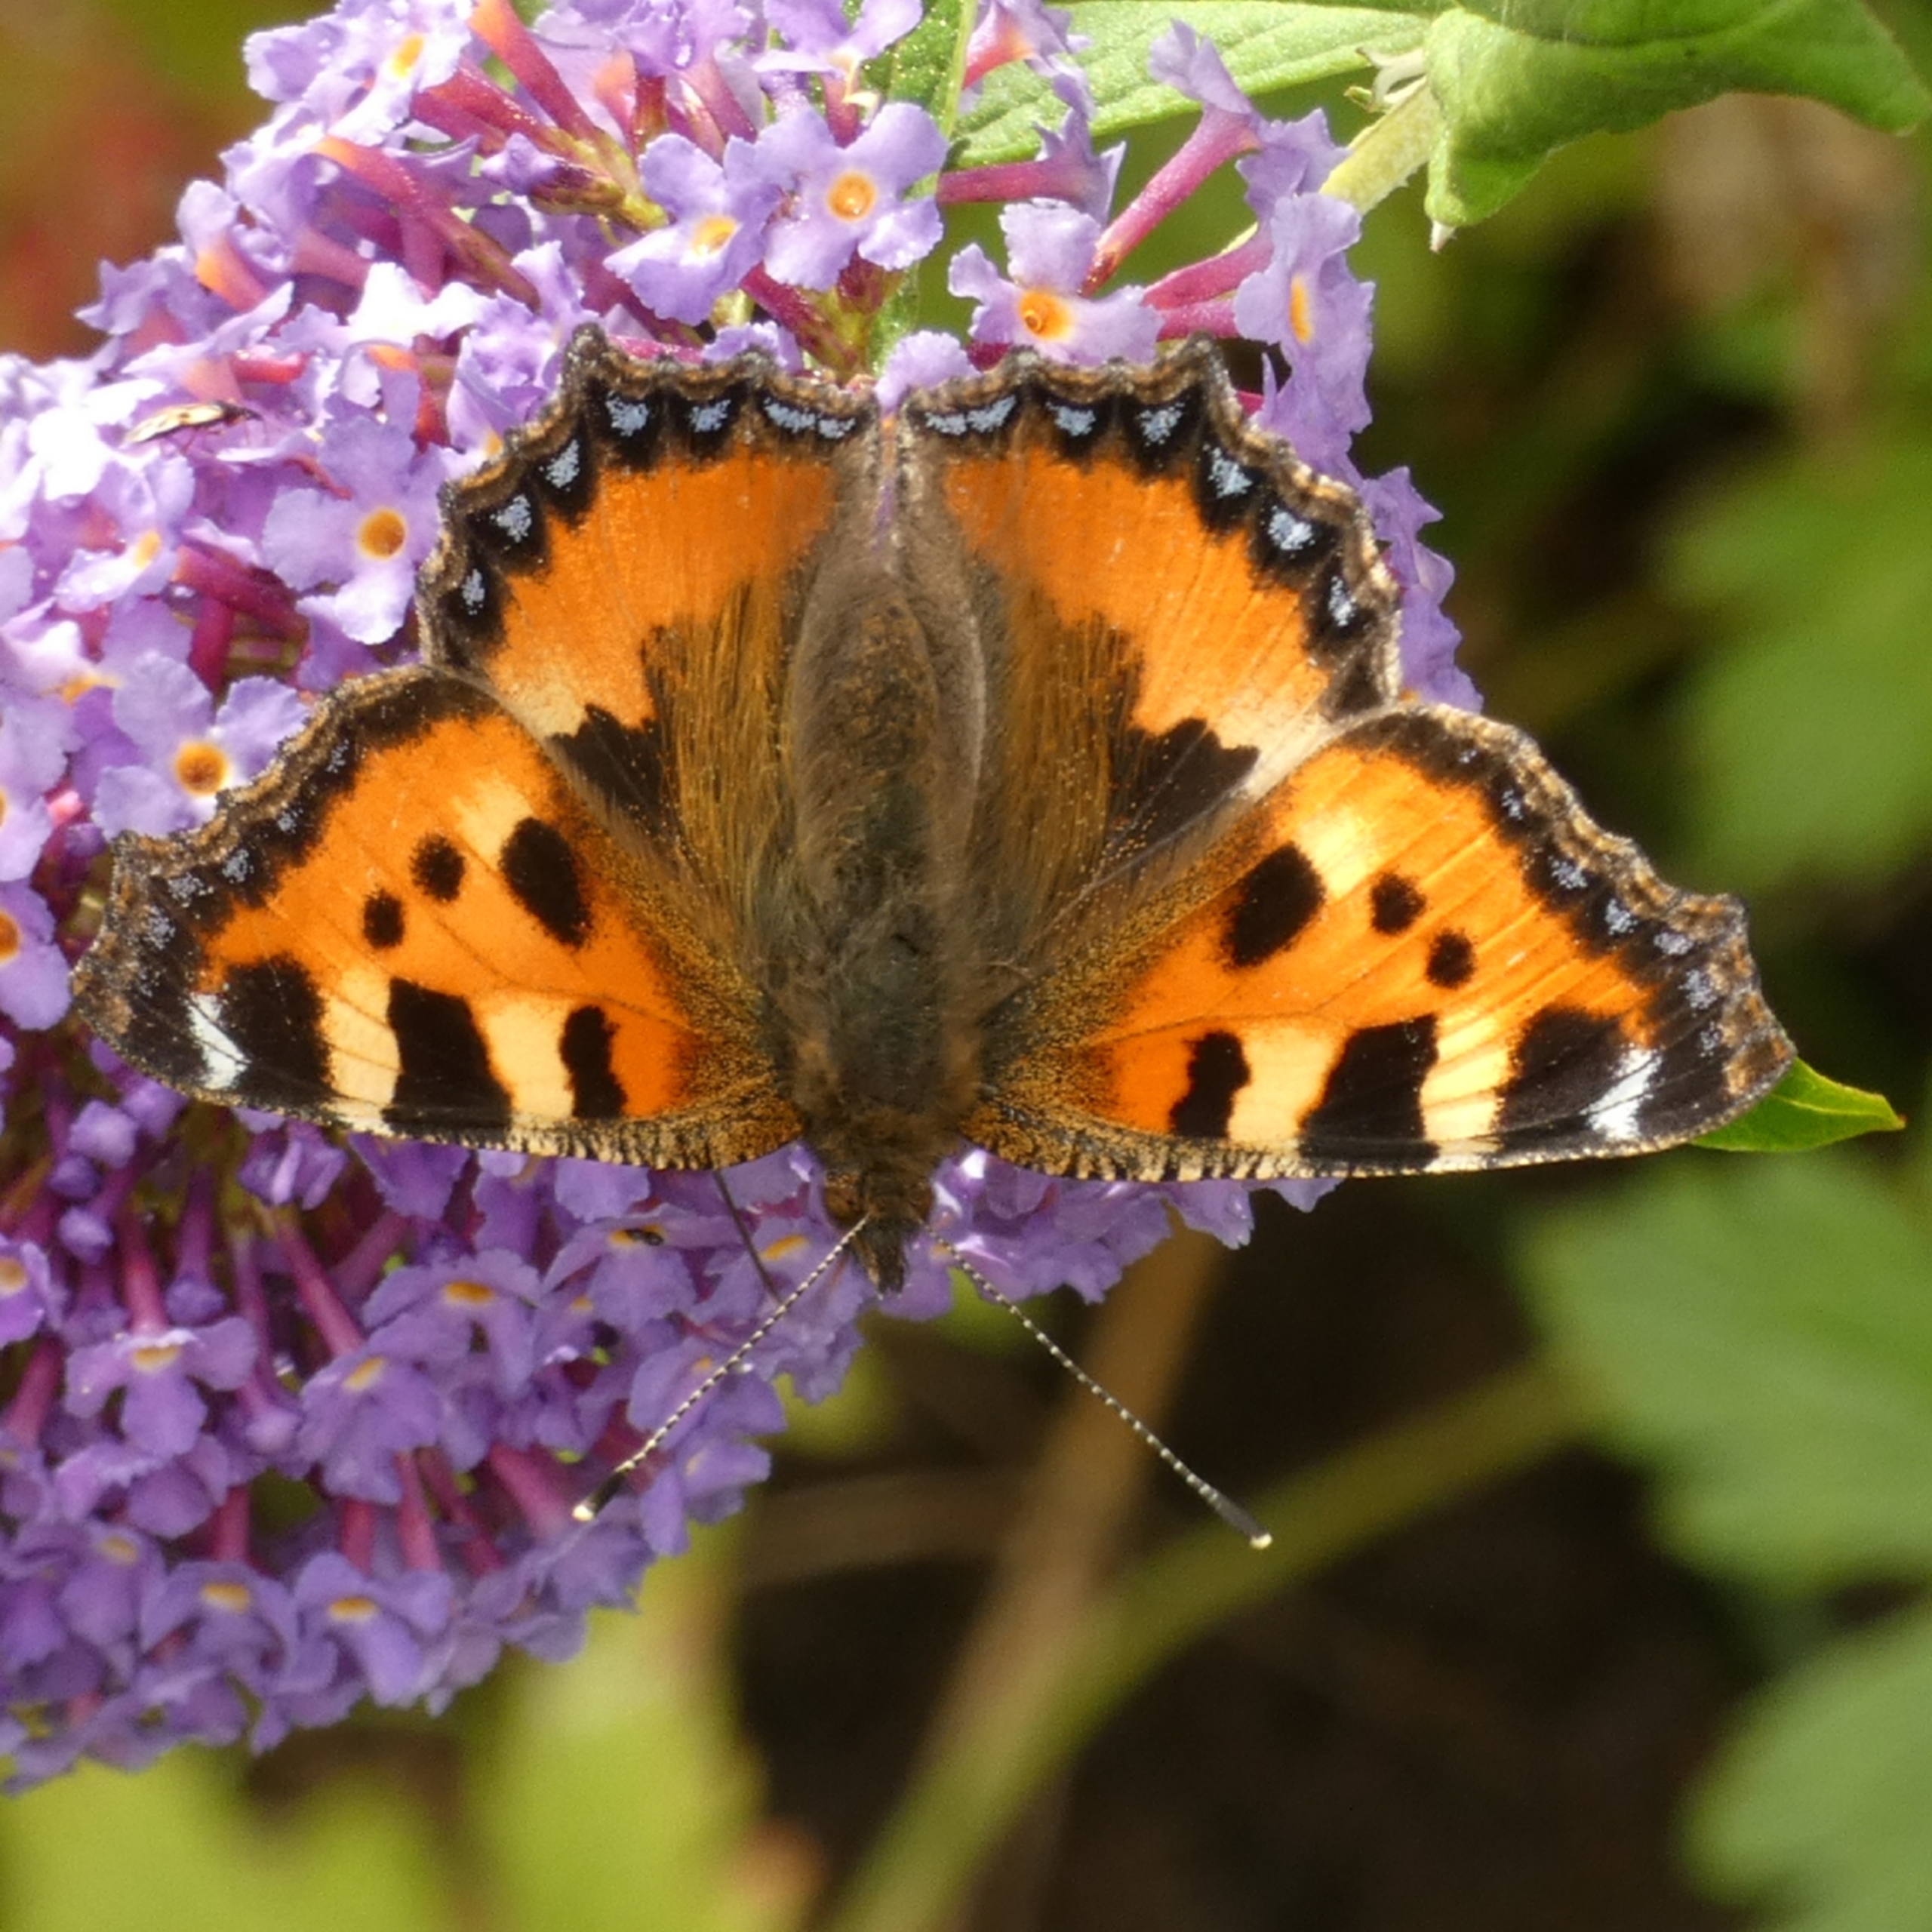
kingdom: Animalia
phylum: Arthropoda
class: Insecta
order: Lepidoptera
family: Nymphalidae
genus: Aglais
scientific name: Aglais urticae
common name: Nældens takvinge
